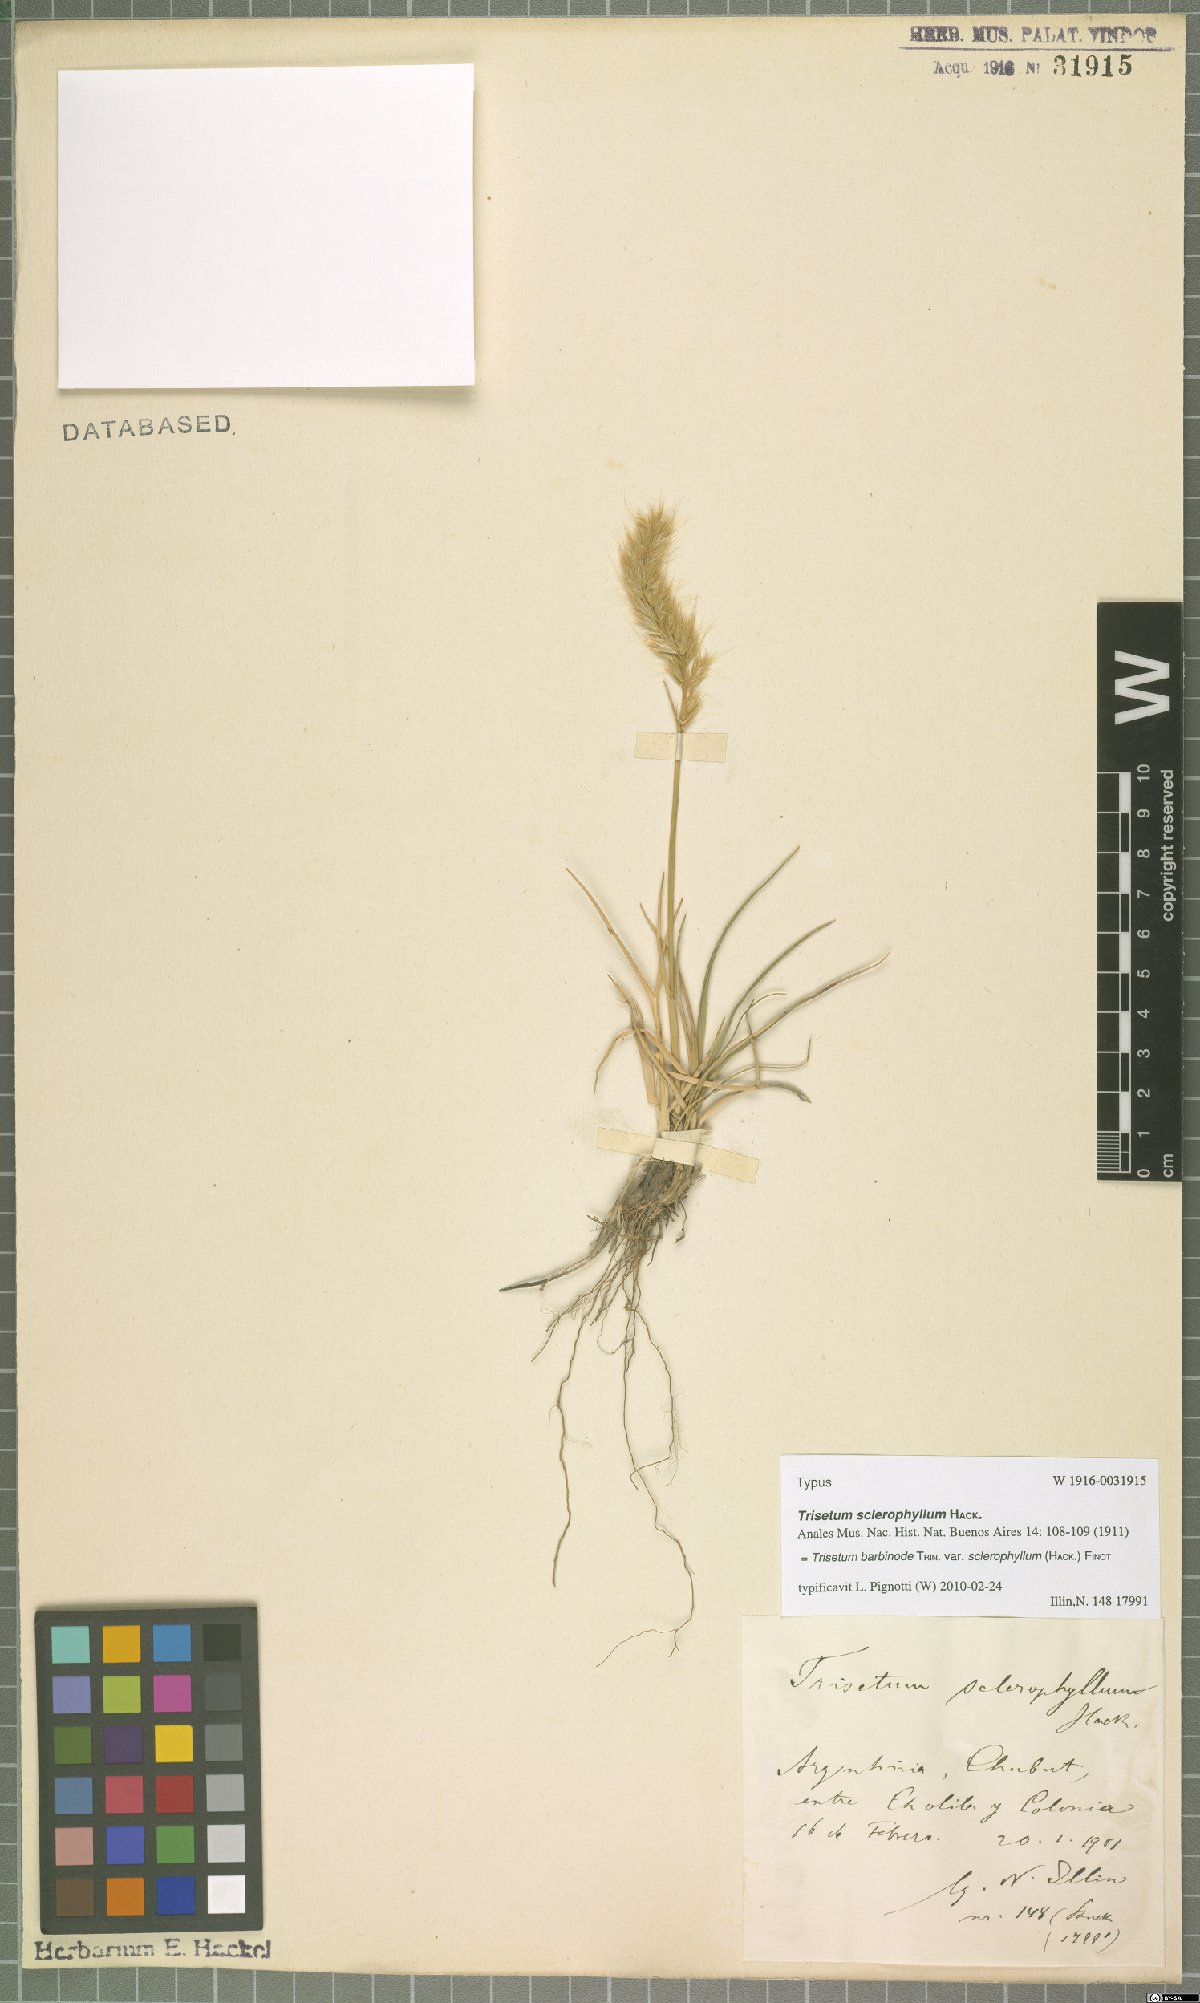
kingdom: Plantae
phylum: Tracheophyta
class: Liliopsida
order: Poales
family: Poaceae
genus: Koeleria
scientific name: Koeleria barbinodis
